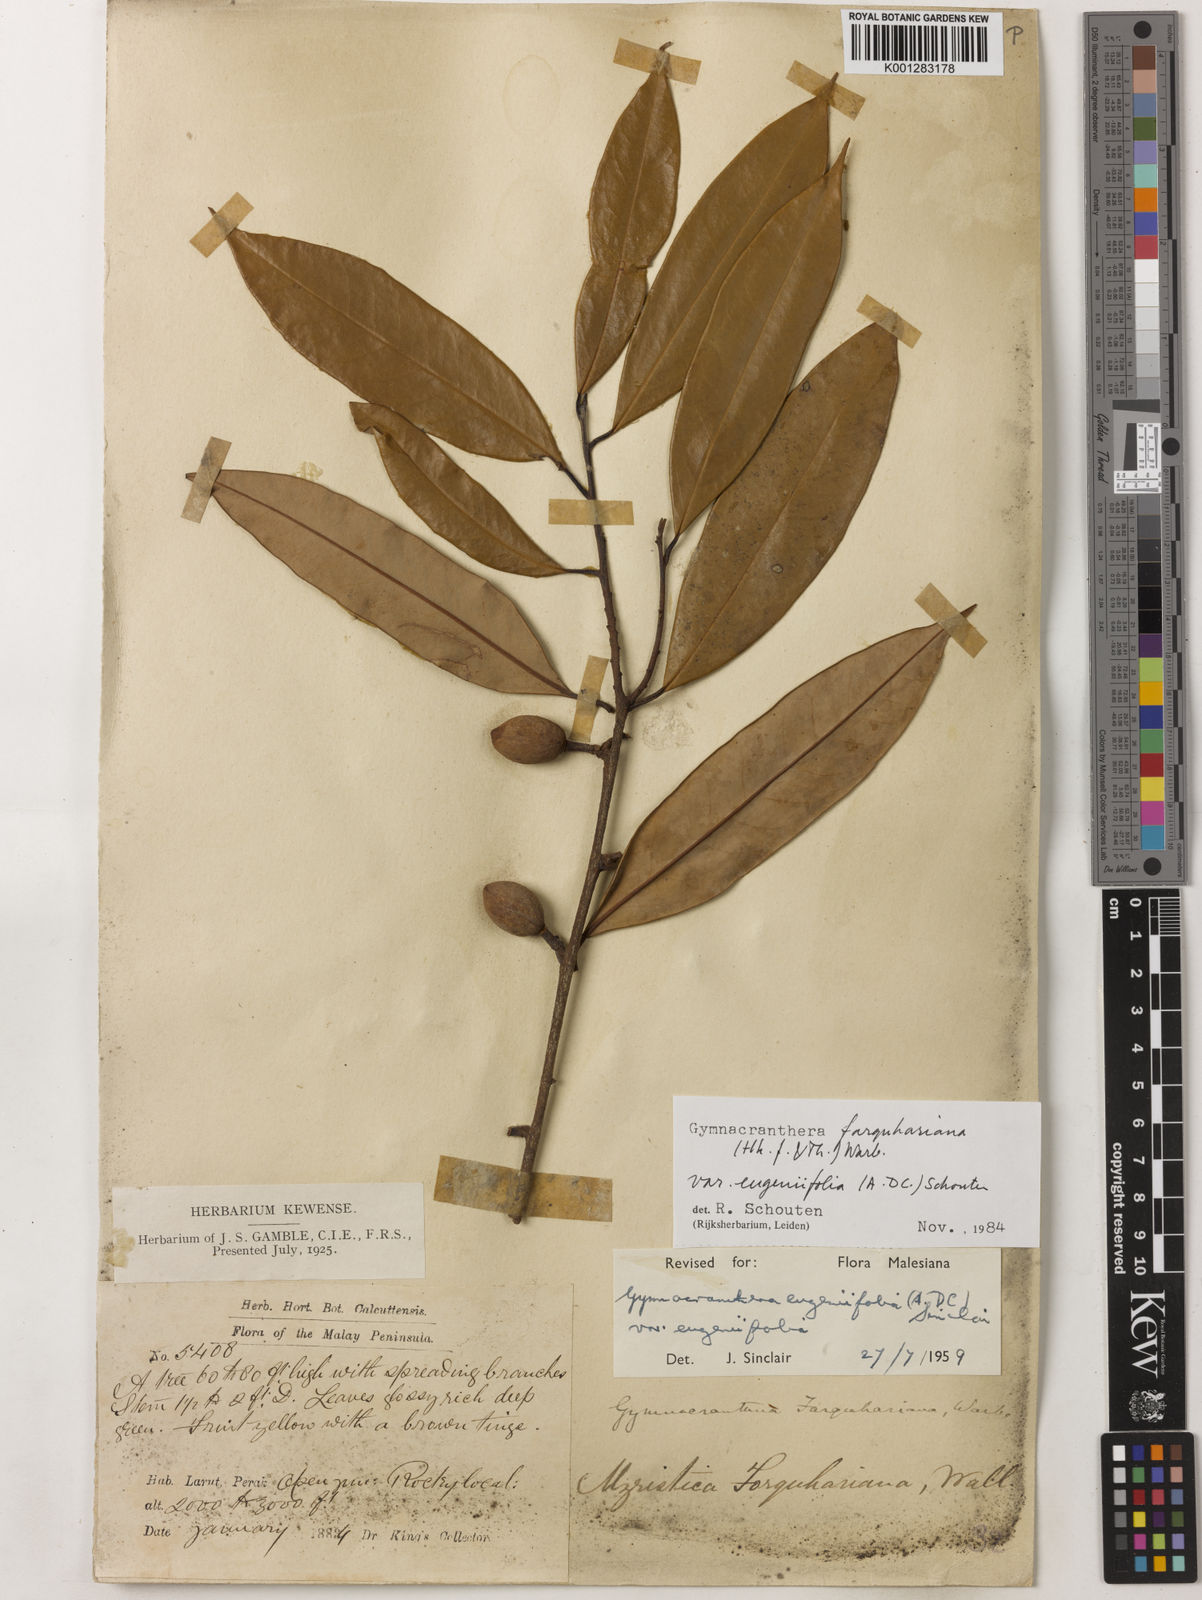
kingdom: Plantae
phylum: Tracheophyta
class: Magnoliopsida
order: Magnoliales
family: Myristicaceae
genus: Gymnacranthera
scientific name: Gymnacranthera farquhariana
